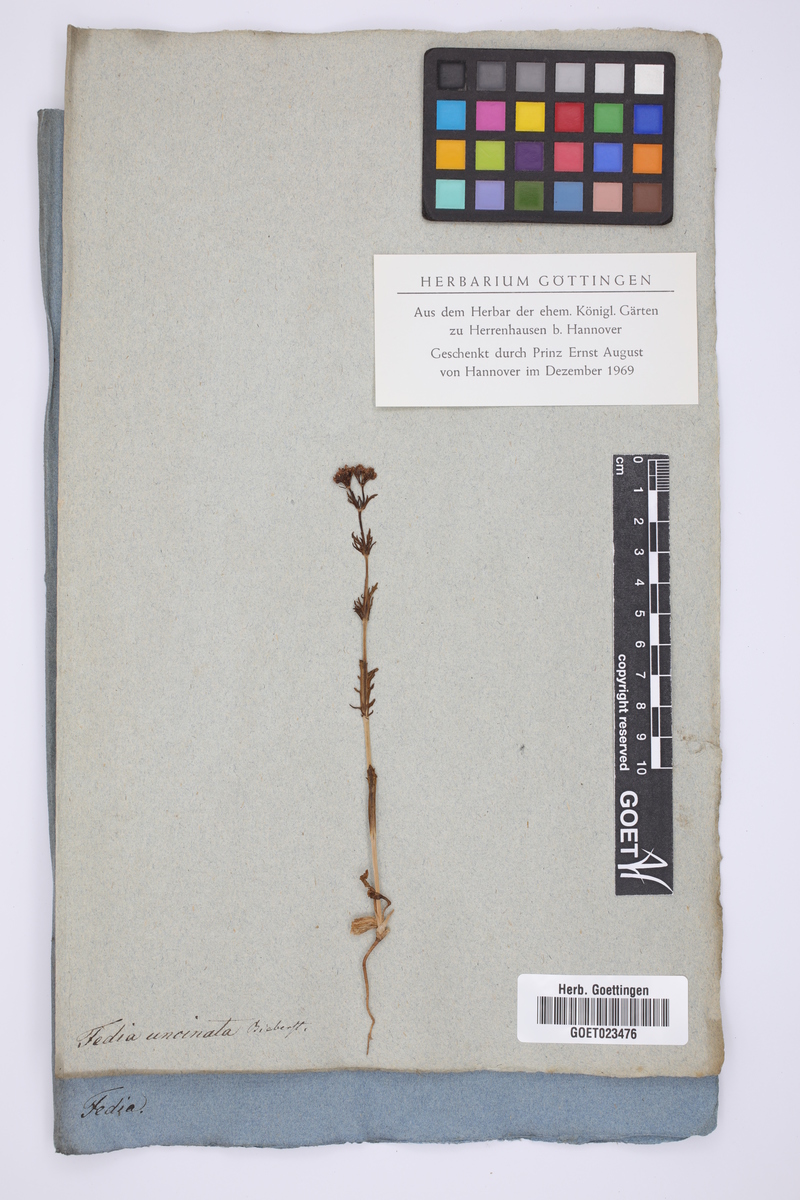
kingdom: Plantae
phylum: Tracheophyta
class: Magnoliopsida
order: Dipsacales
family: Caprifoliaceae
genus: Valerianella
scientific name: Valerianella uncinata
